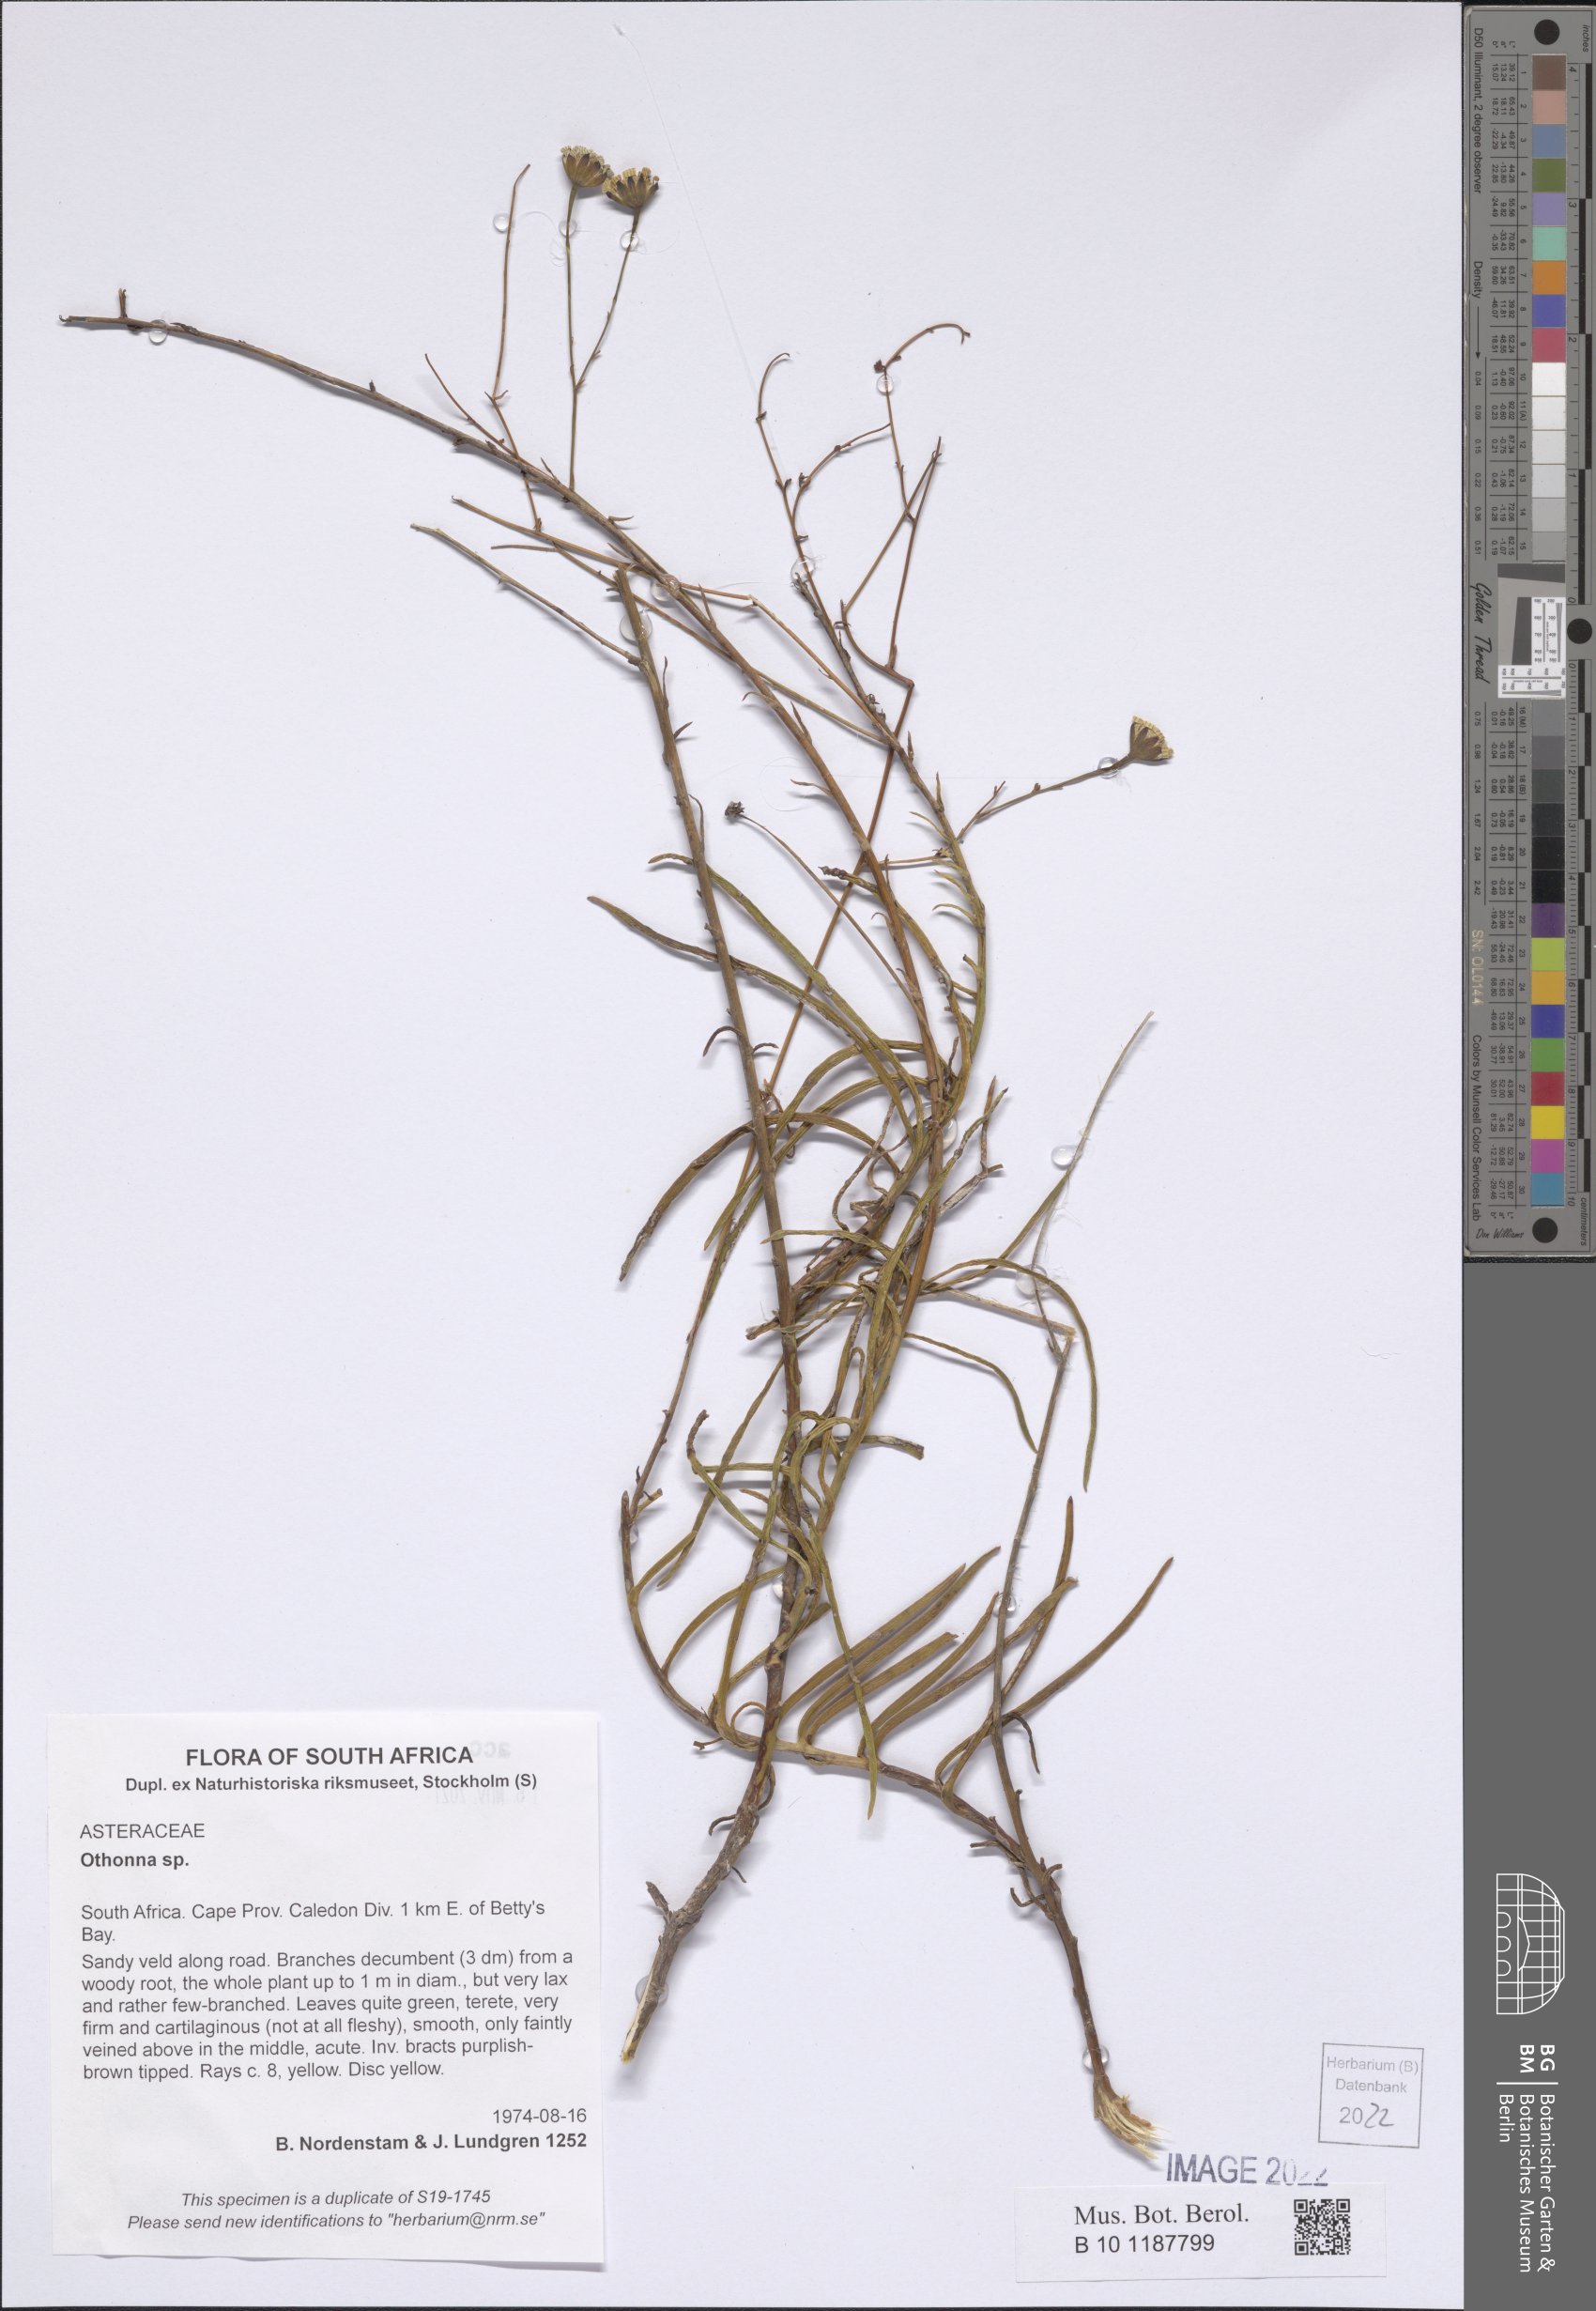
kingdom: Plantae
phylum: Tracheophyta
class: Magnoliopsida
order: Asterales
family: Asteraceae
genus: Othonna
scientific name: Othonna
